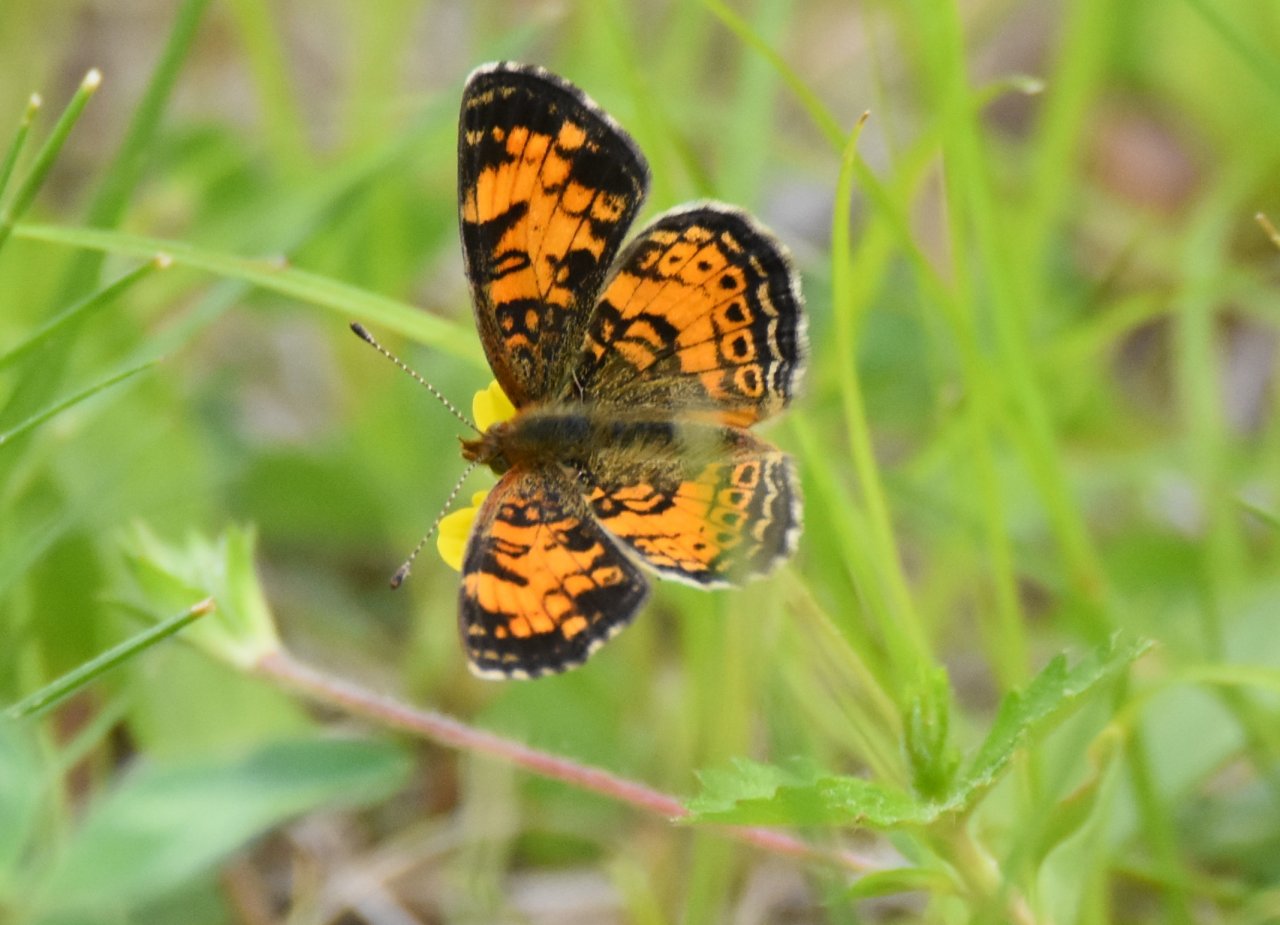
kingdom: Animalia
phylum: Arthropoda
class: Insecta
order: Lepidoptera
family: Nymphalidae
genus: Phyciodes
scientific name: Phyciodes tharos
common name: Pearl Crescent
